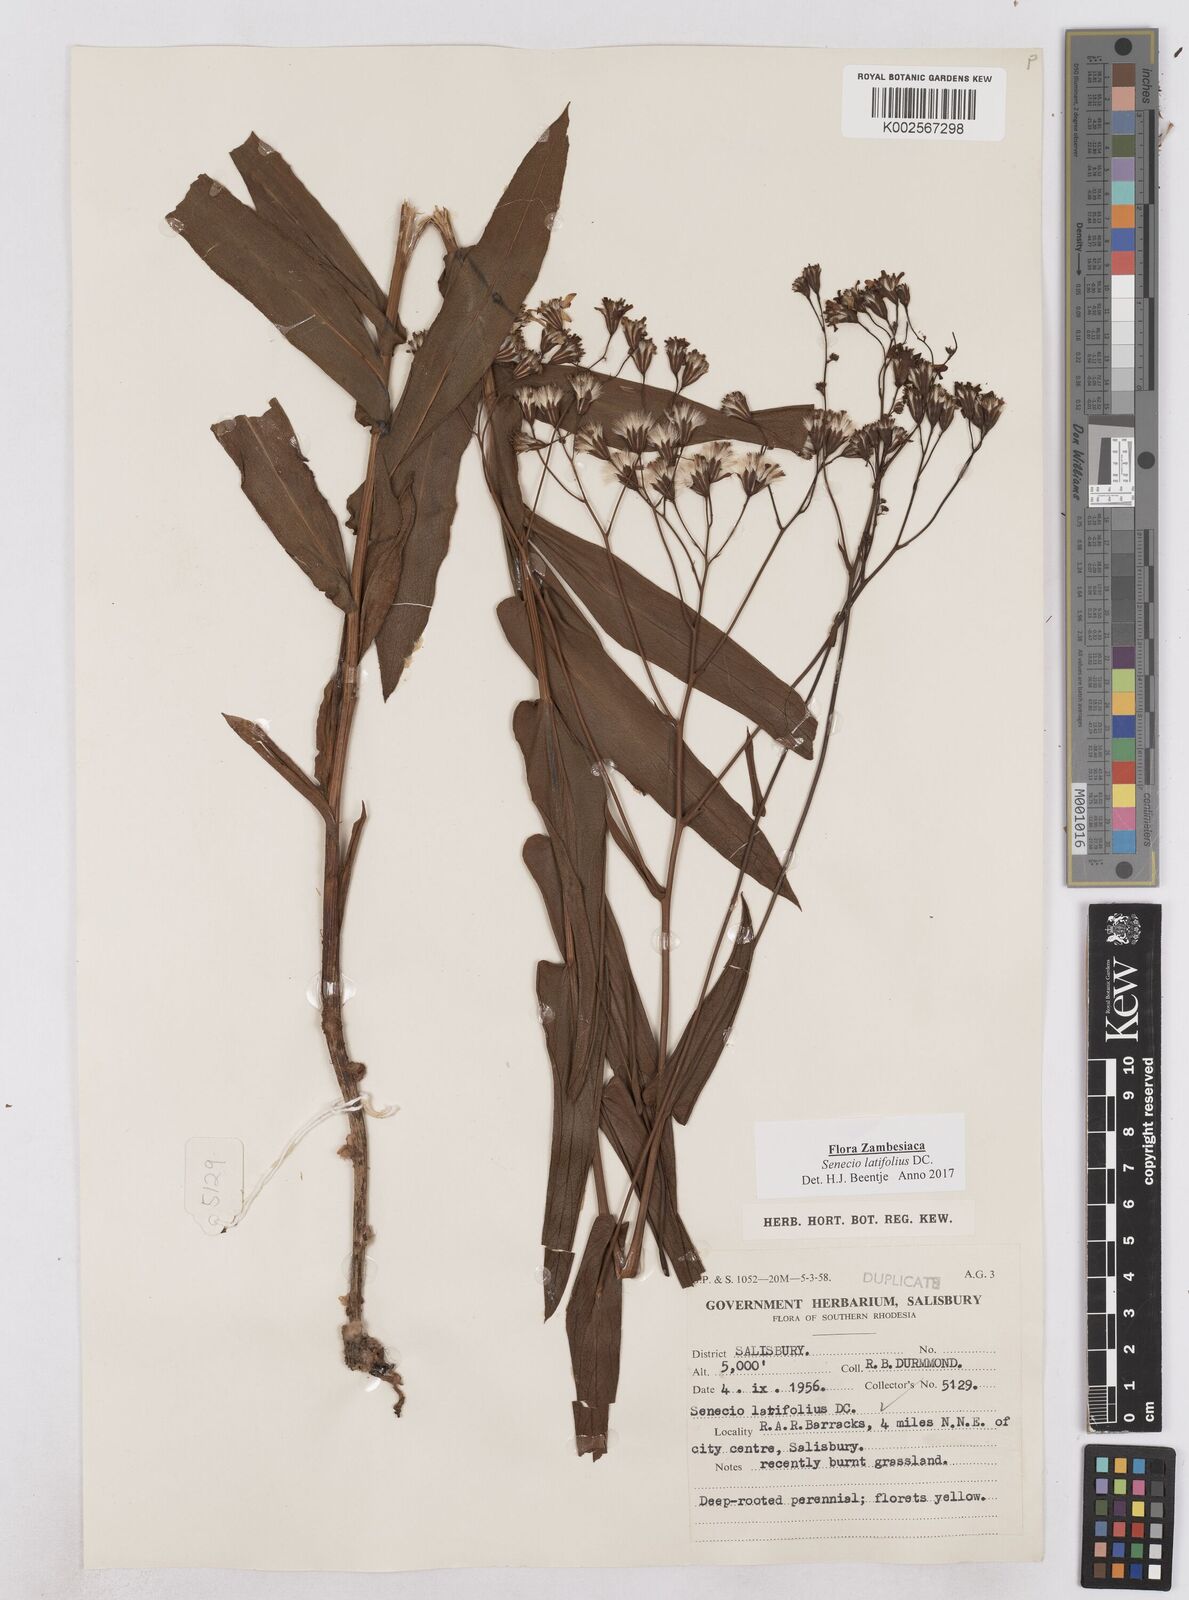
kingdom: Plantae
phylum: Tracheophyta
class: Magnoliopsida
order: Asterales
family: Asteraceae
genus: Senecio
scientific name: Senecio latifolius
